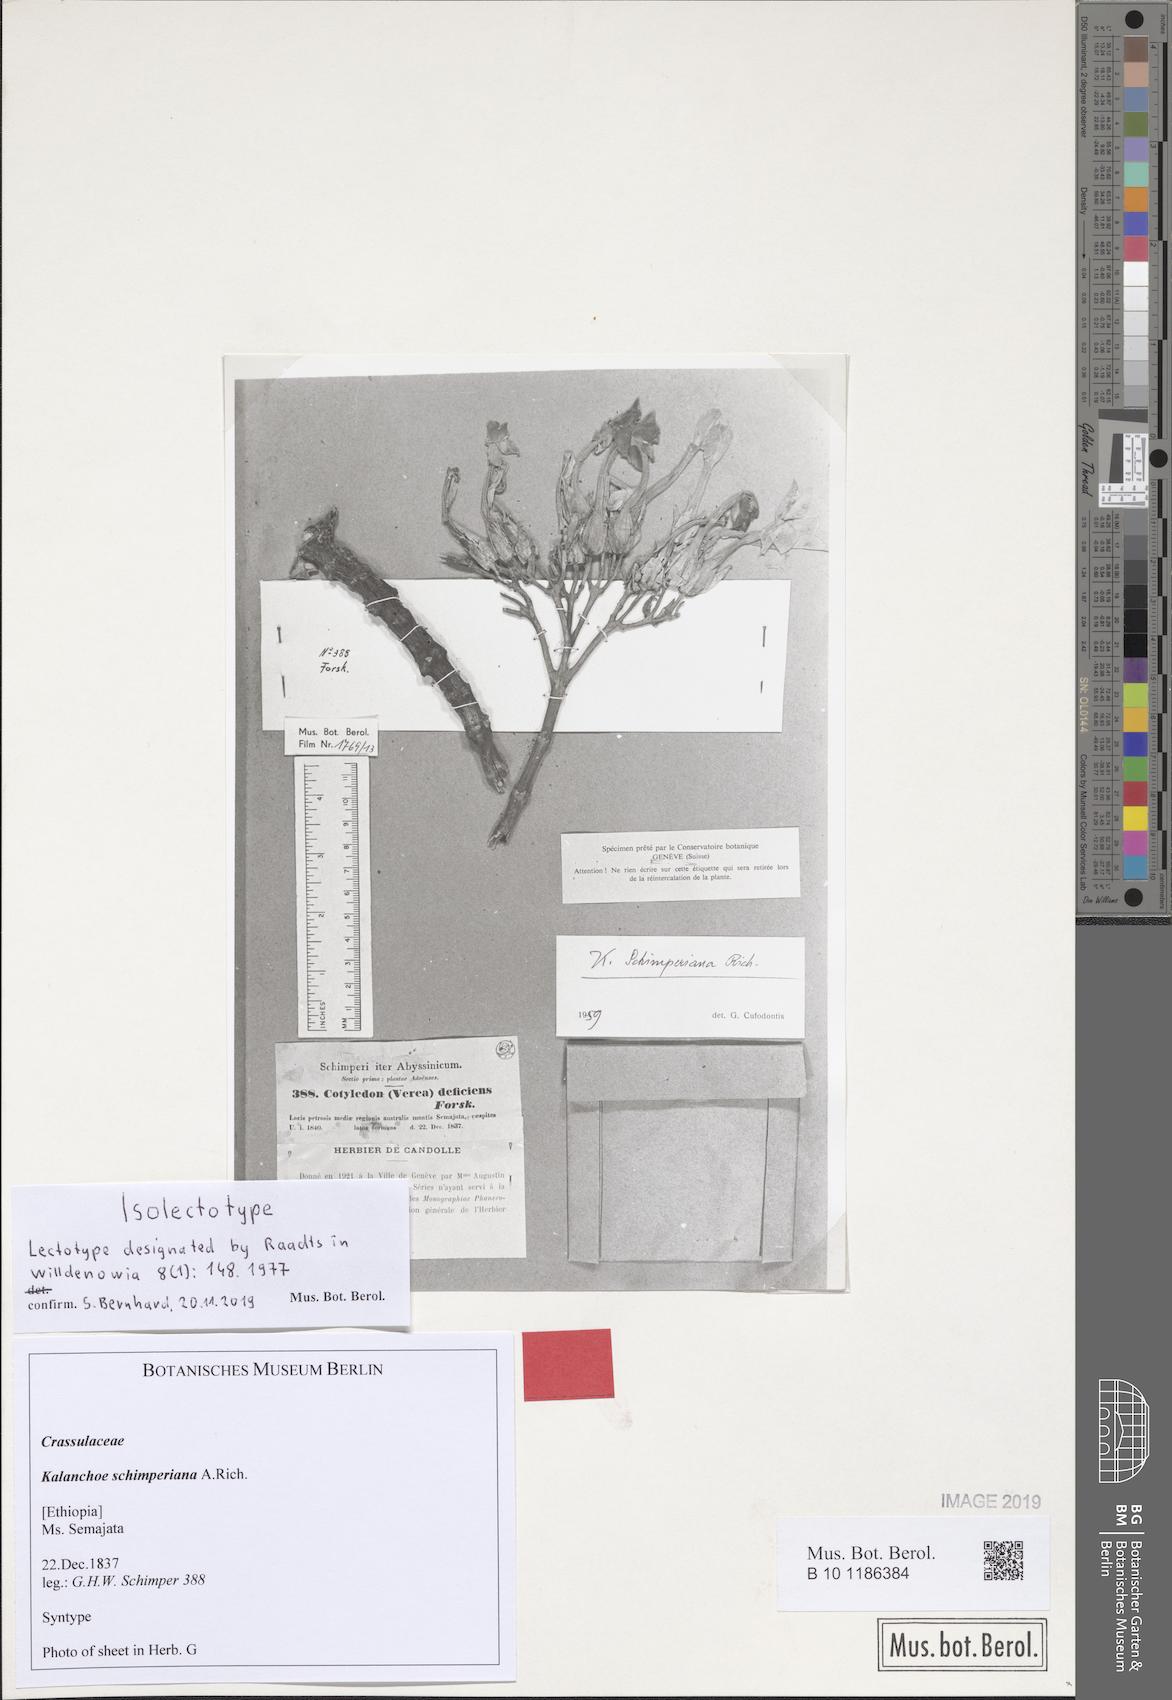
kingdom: Plantae
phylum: Tracheophyta
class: Magnoliopsida
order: Saxifragales
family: Crassulaceae
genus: Kalanchoe
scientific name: Kalanchoe schimperiana
